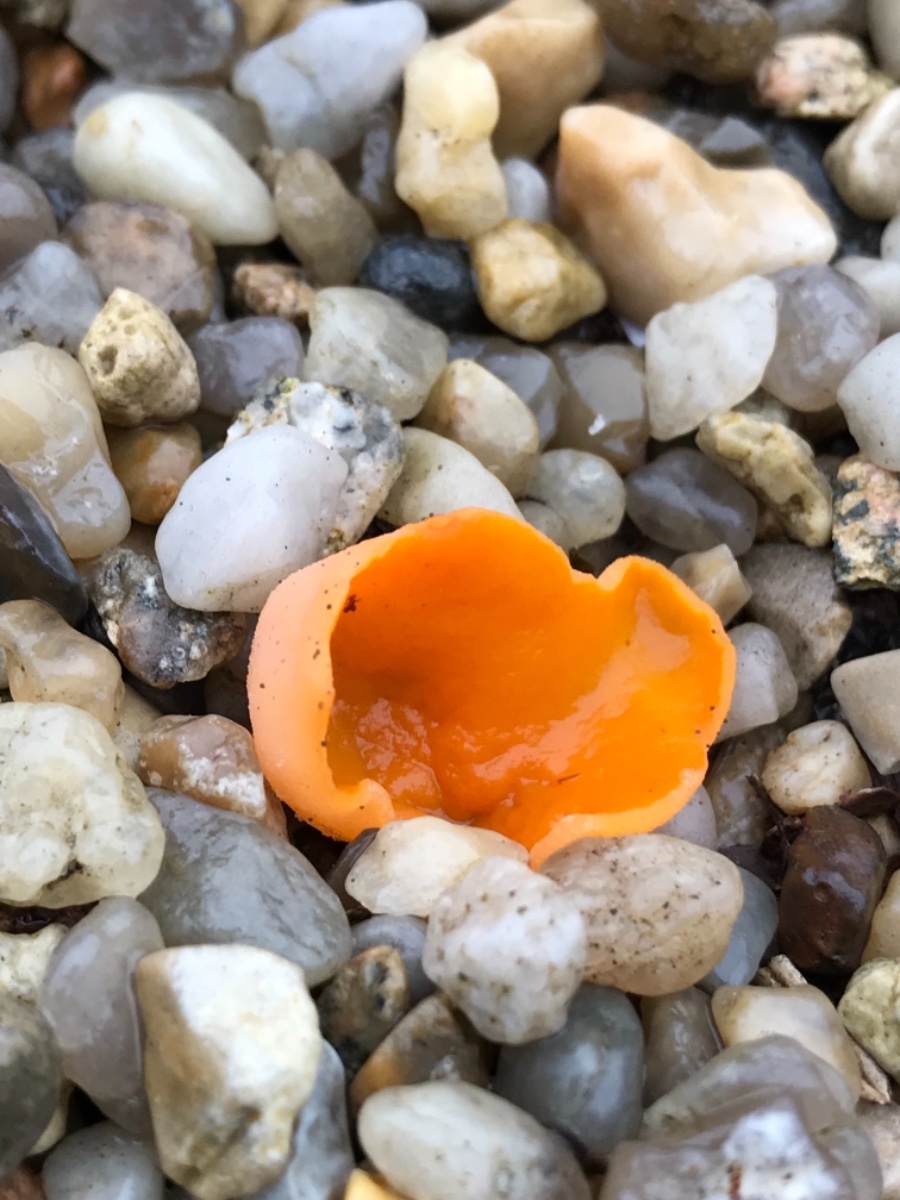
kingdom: Fungi
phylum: Ascomycota
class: Pezizomycetes
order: Pezizales
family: Pyronemataceae
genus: Aleuria
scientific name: Aleuria aurantia
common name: almindelig orangebæger
